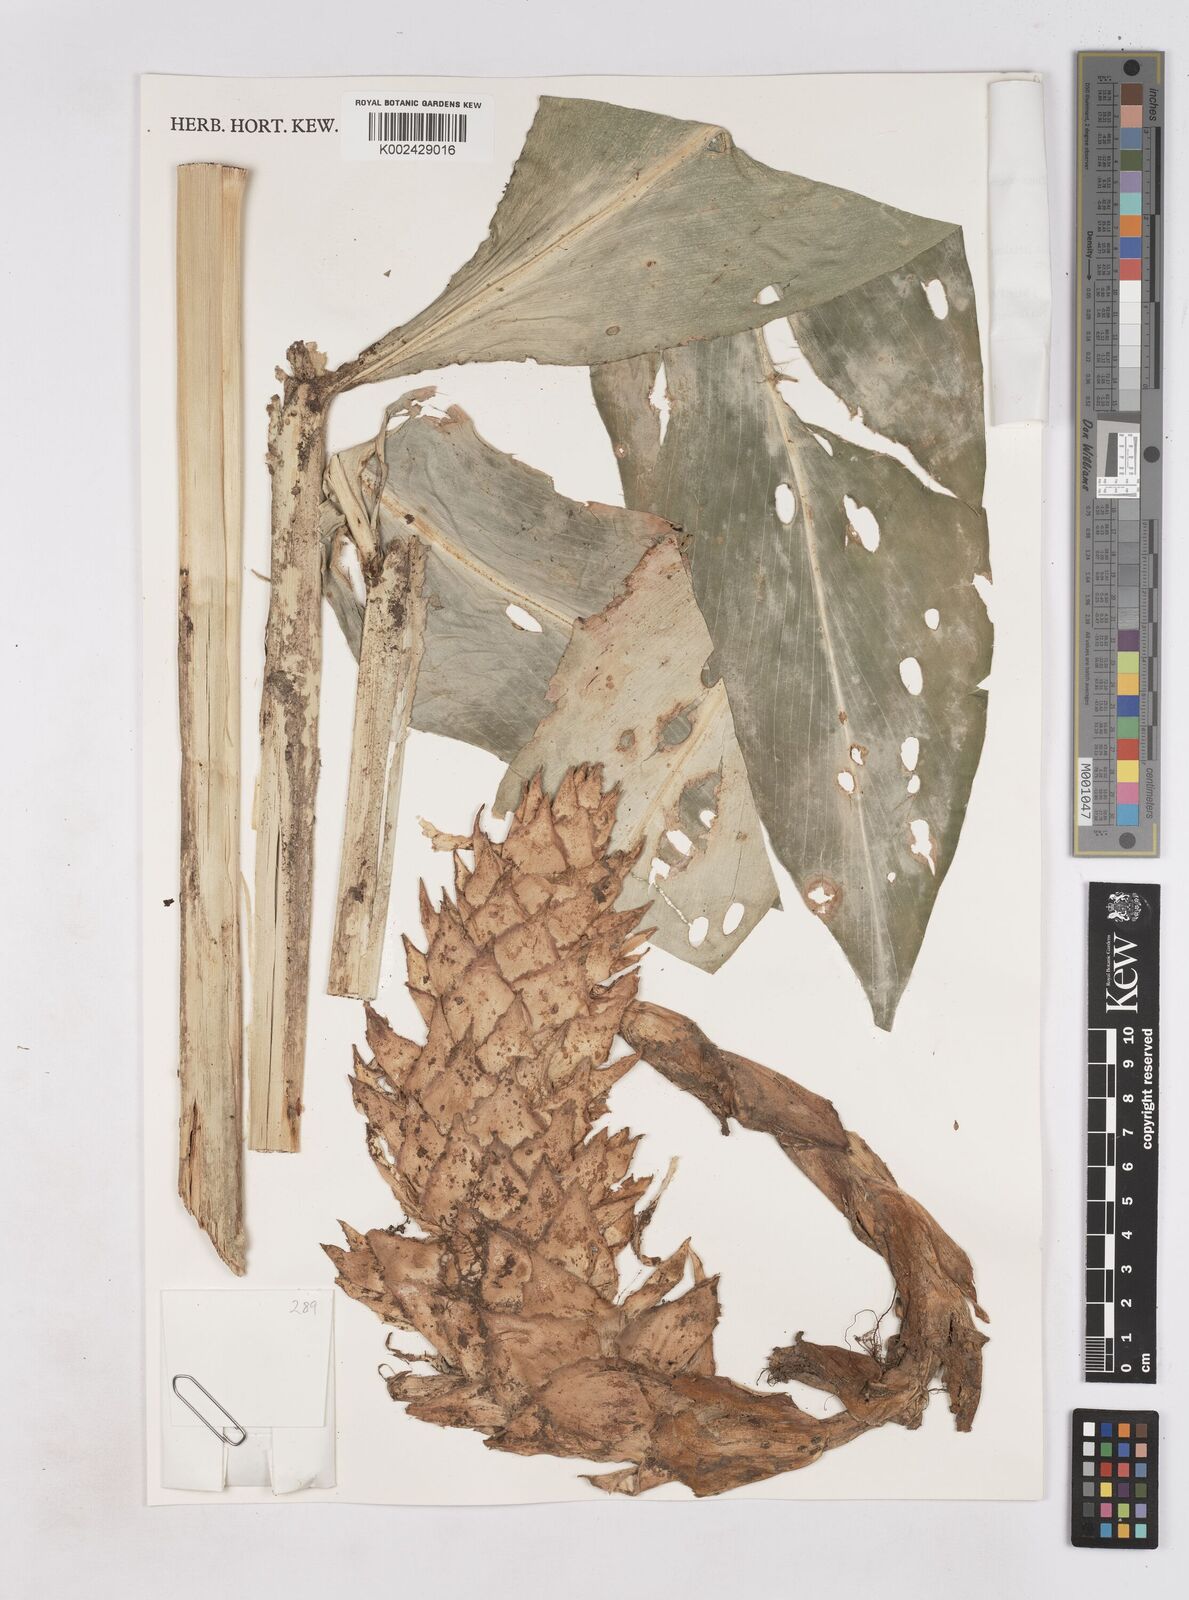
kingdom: Plantae
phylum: Tracheophyta
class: Liliopsida
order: Zingiberales
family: Zingiberaceae
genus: Zingiber
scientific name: Zingiber pseudopungens
